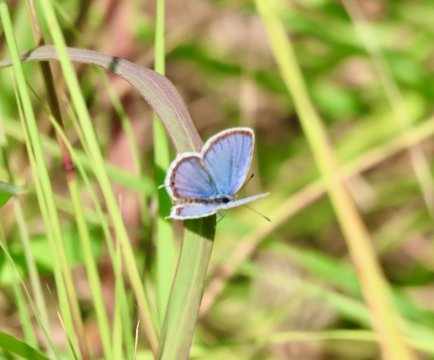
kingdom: Animalia
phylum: Arthropoda
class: Insecta
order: Lepidoptera
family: Lycaenidae
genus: Elkalyce
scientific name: Elkalyce comyntas
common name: Eastern Tailed-Blue
